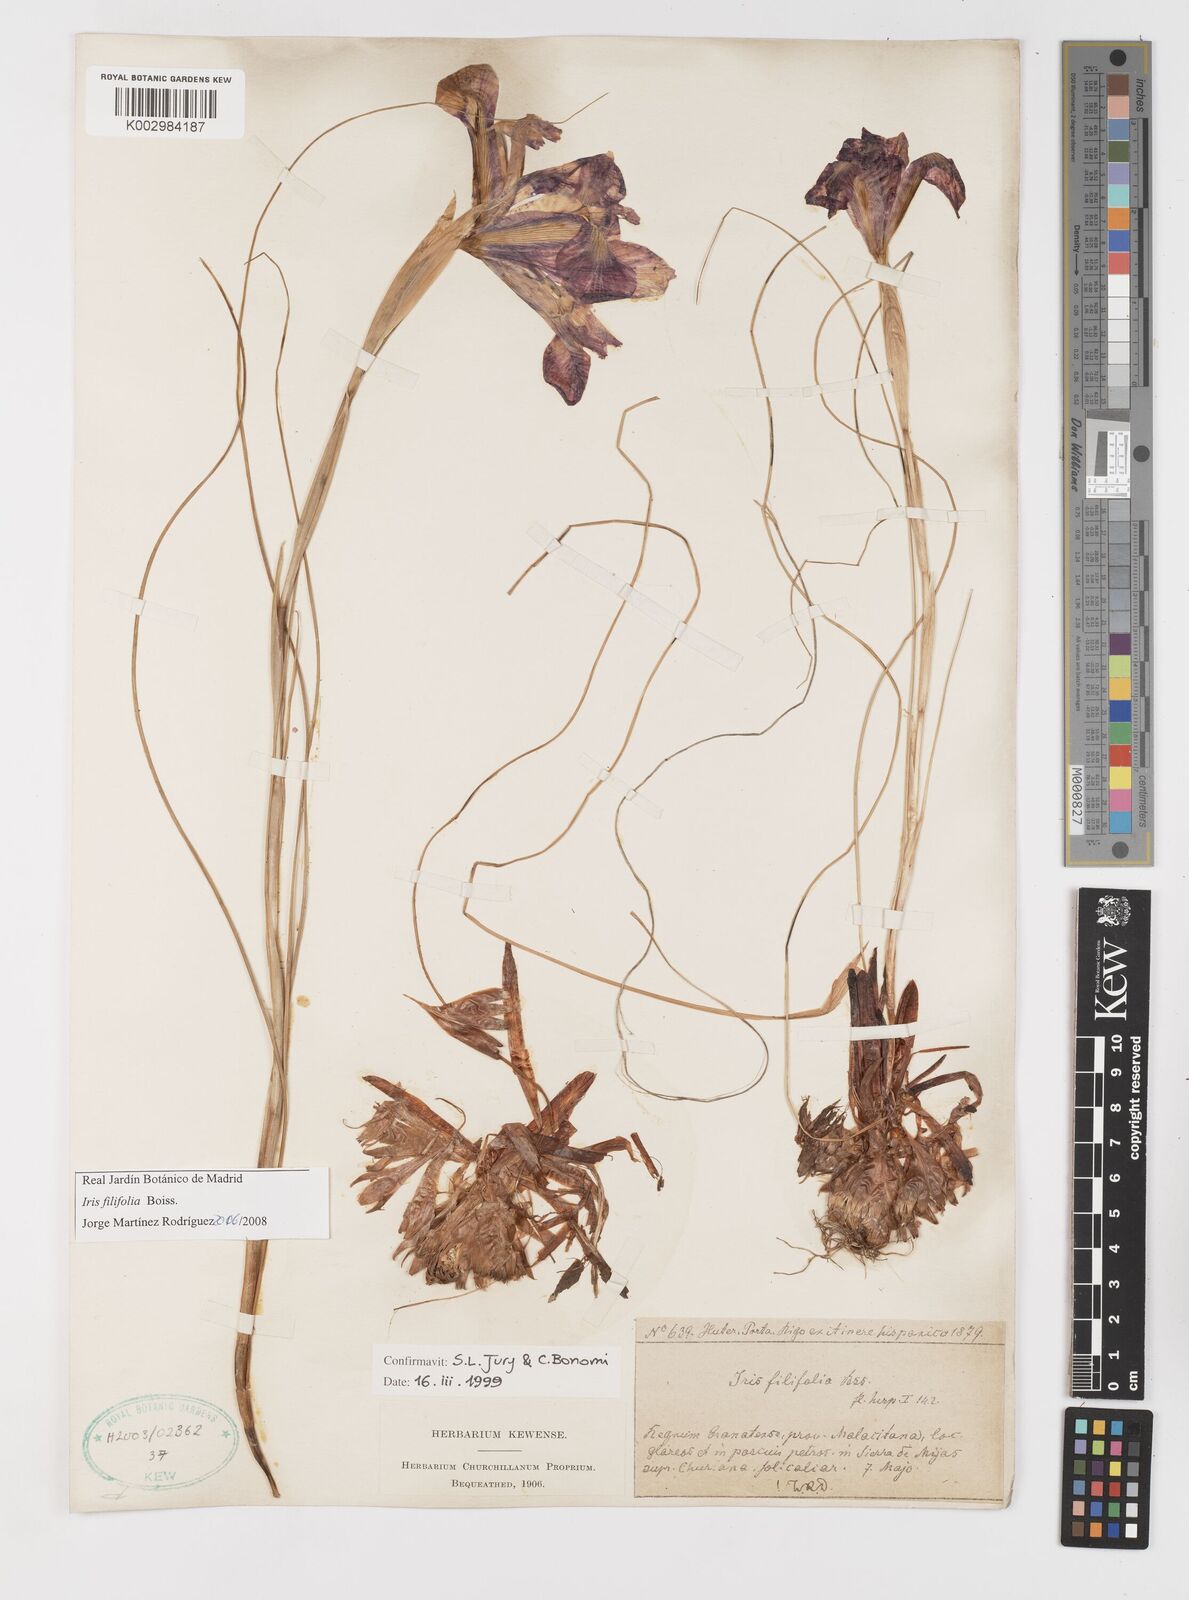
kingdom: Plantae
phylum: Tracheophyta
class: Liliopsida
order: Asparagales
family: Iridaceae
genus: Iris
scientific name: Iris filifolia
